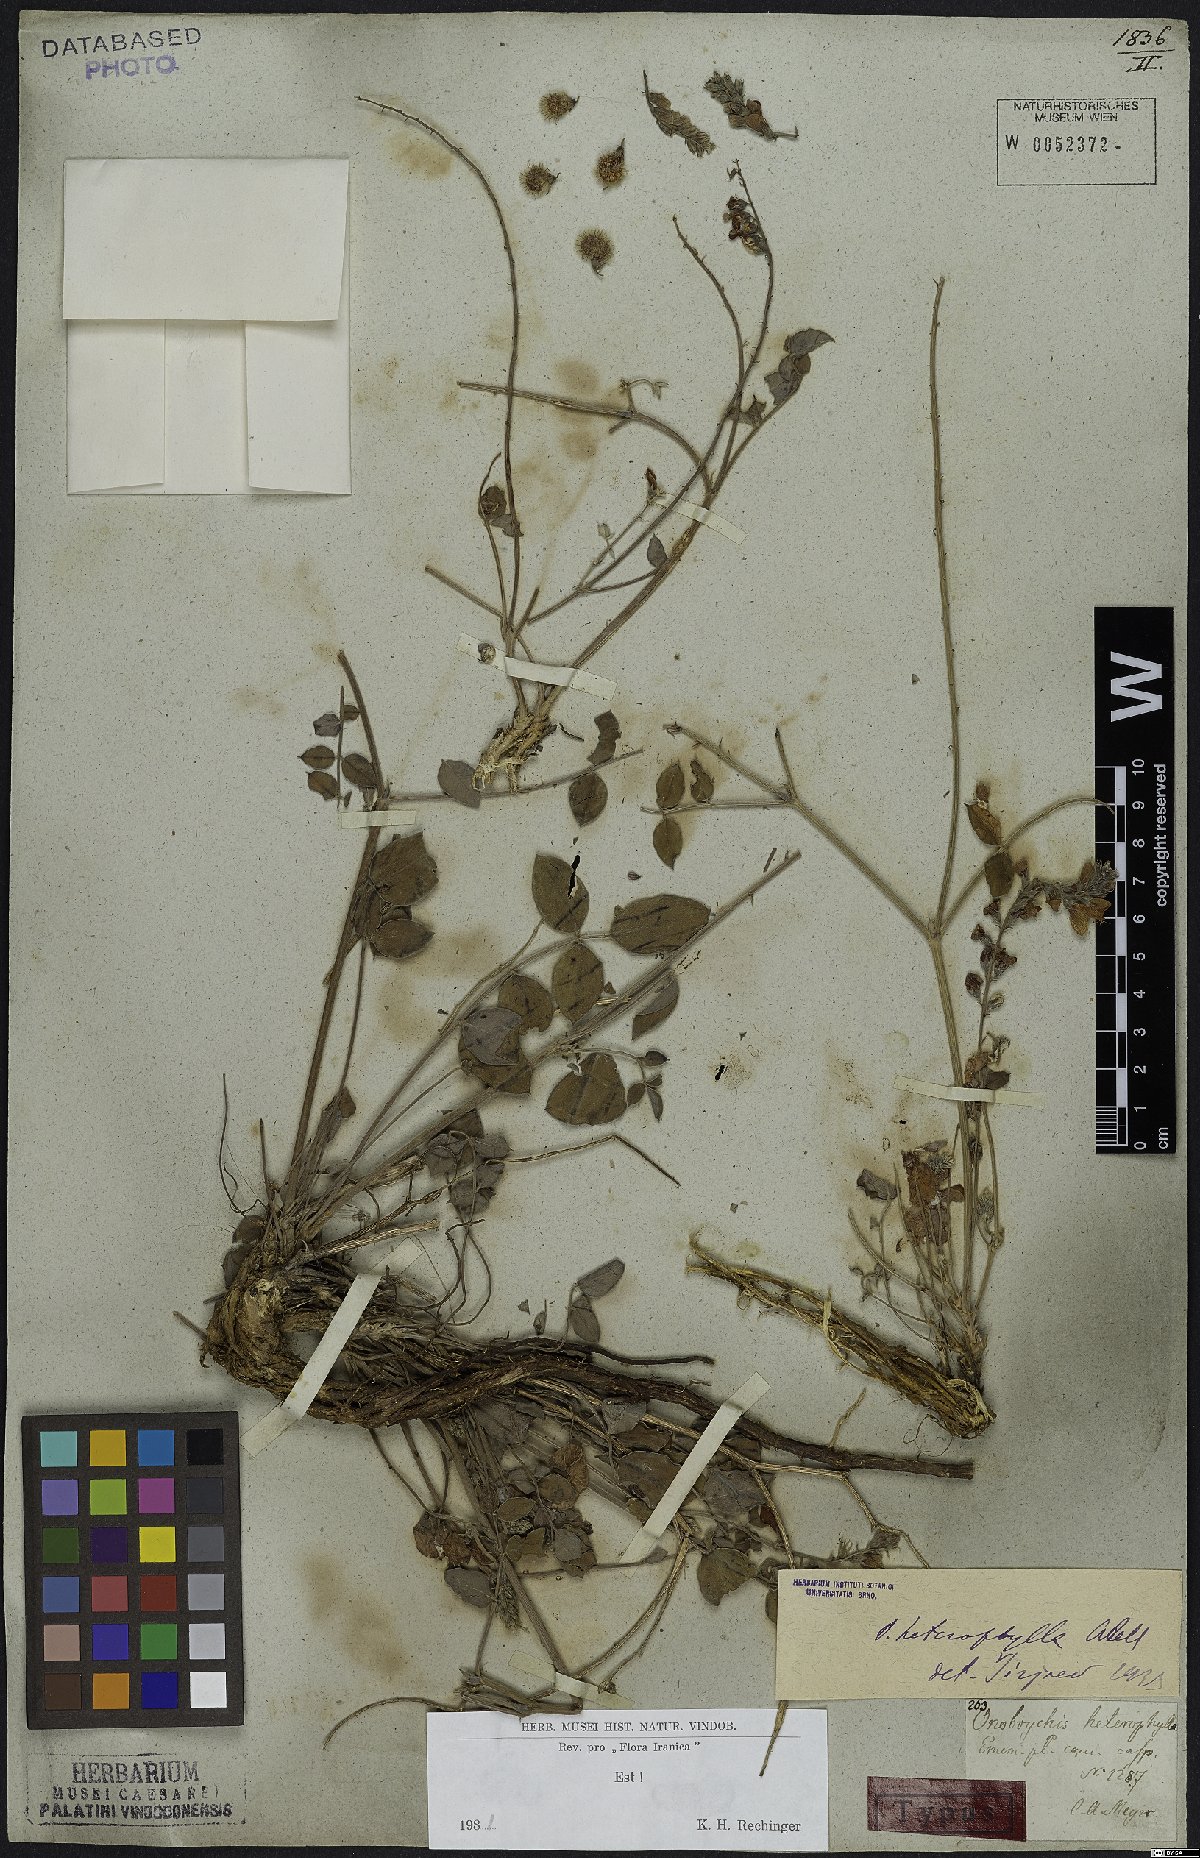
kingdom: Plantae
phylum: Tracheophyta
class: Magnoliopsida
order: Fabales
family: Fabaceae
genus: Onobrychis
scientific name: Onobrychis heterophylla
